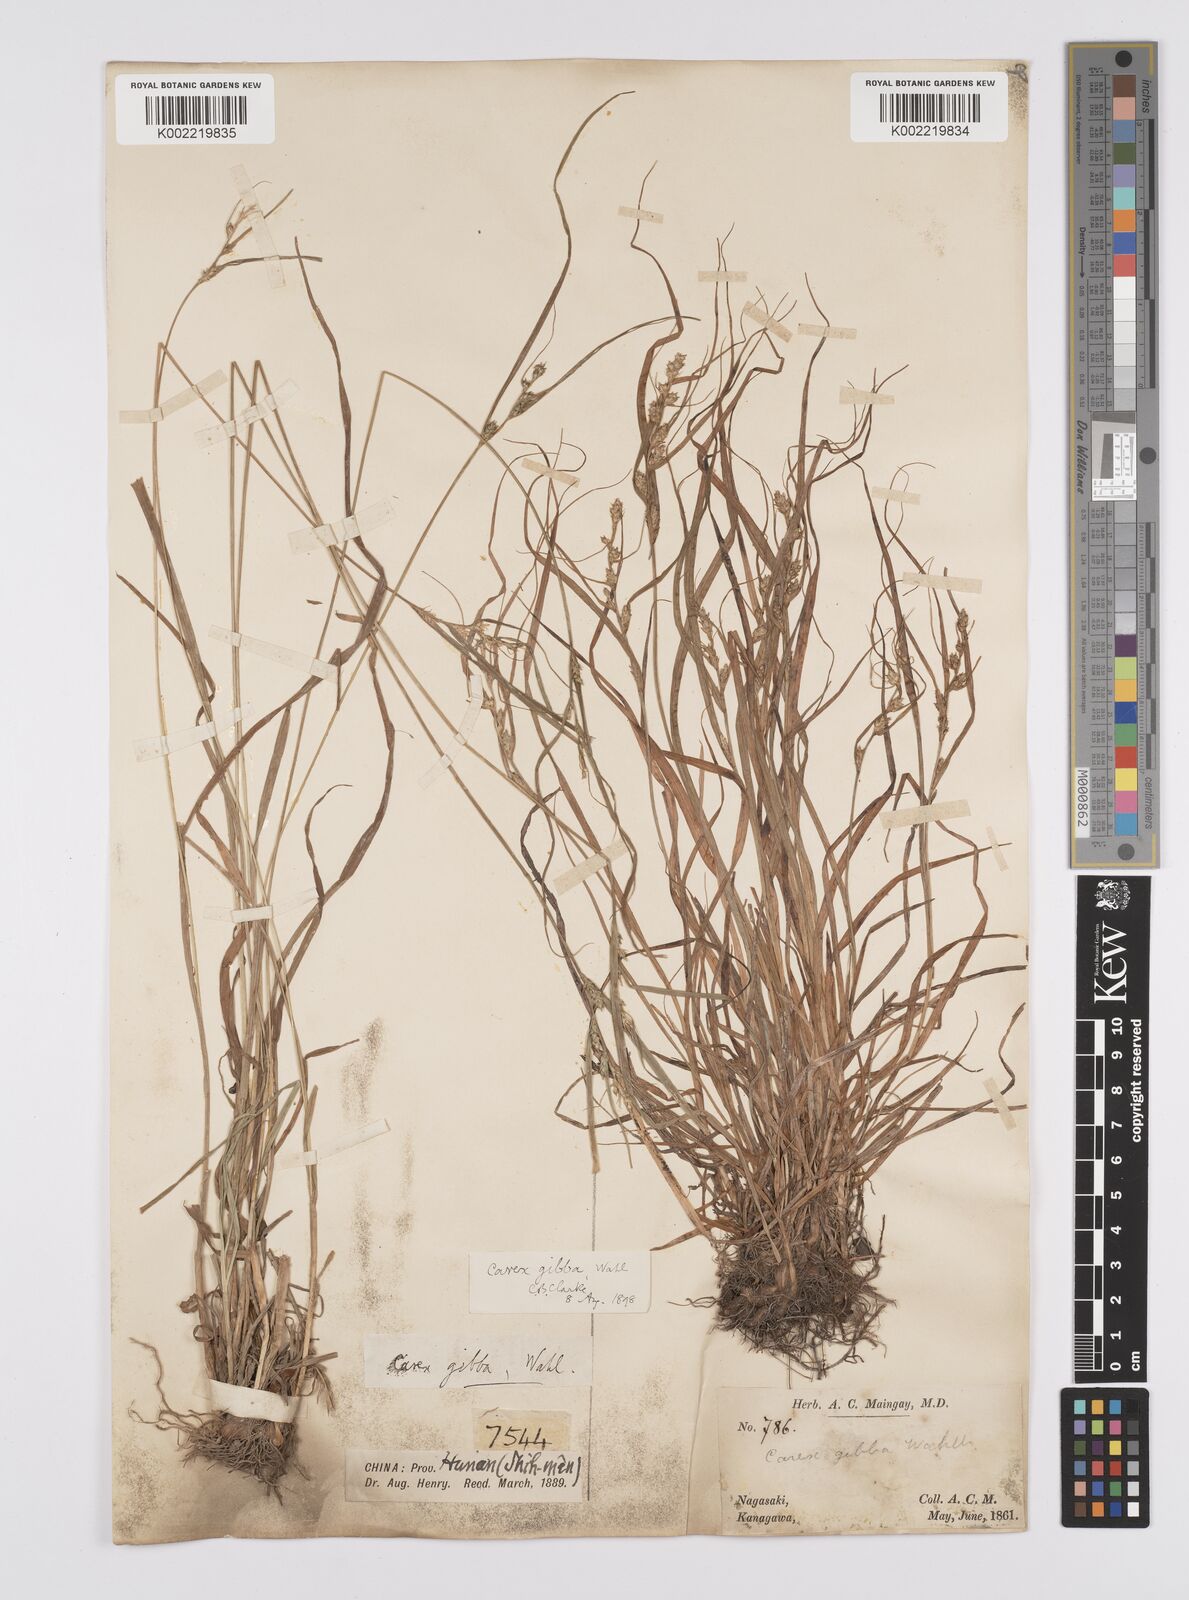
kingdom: Plantae
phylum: Tracheophyta
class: Liliopsida
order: Poales
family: Cyperaceae
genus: Carex
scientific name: Carex gibba
